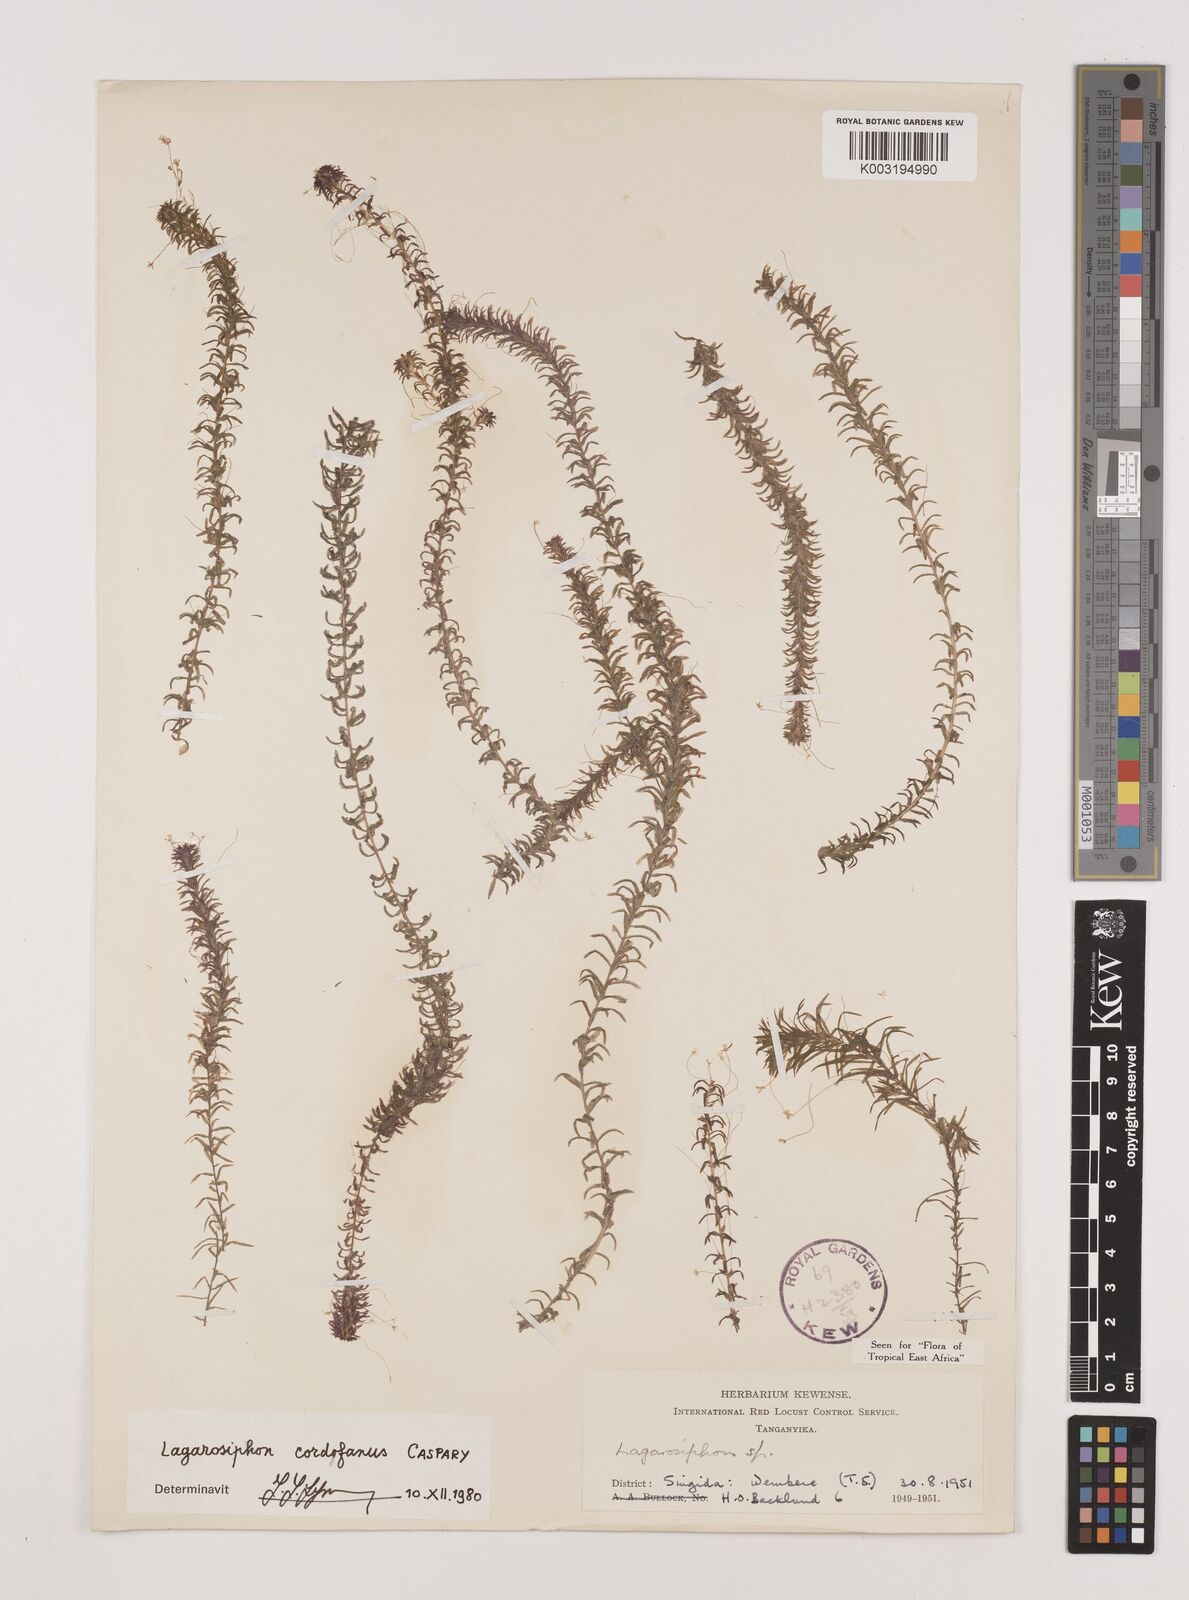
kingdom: Plantae
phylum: Tracheophyta
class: Liliopsida
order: Alismatales
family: Hydrocharitaceae
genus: Lagarosiphon
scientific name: Lagarosiphon cordofanus
